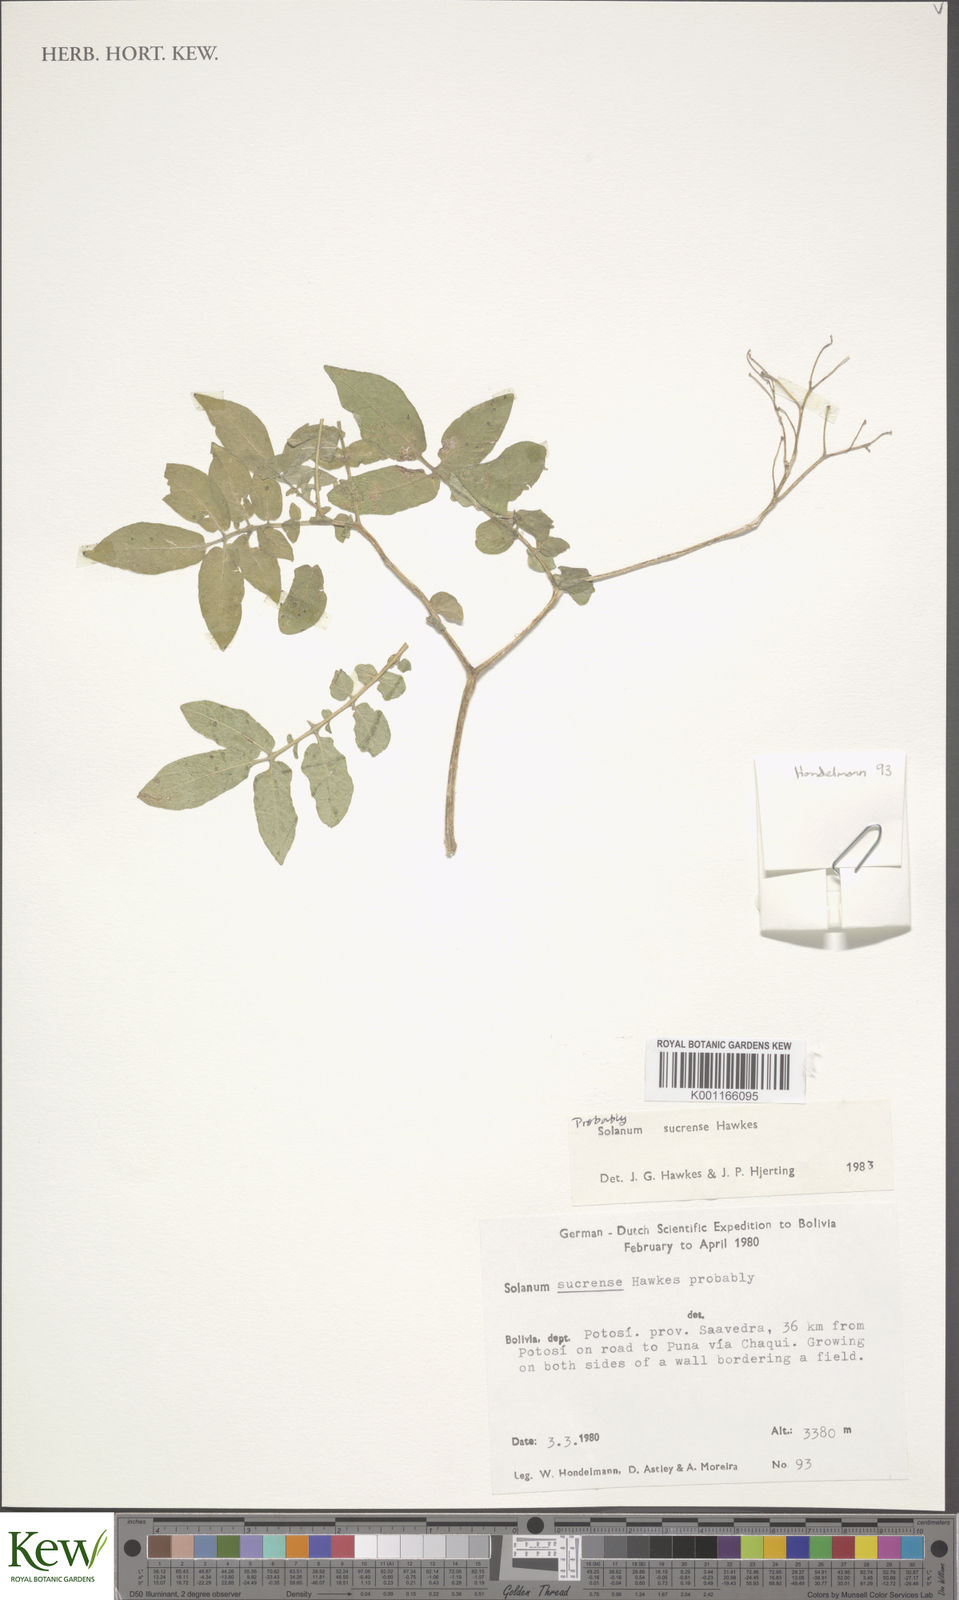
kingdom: Plantae
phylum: Tracheophyta
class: Magnoliopsida
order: Solanales
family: Solanaceae
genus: Solanum
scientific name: Solanum brevicaule
